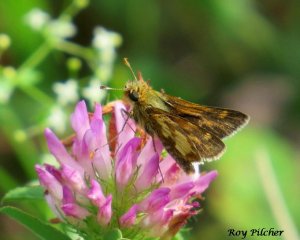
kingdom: Animalia
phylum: Arthropoda
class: Insecta
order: Lepidoptera
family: Hesperiidae
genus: Polites
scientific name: Polites coras
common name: Peck's Skipper
